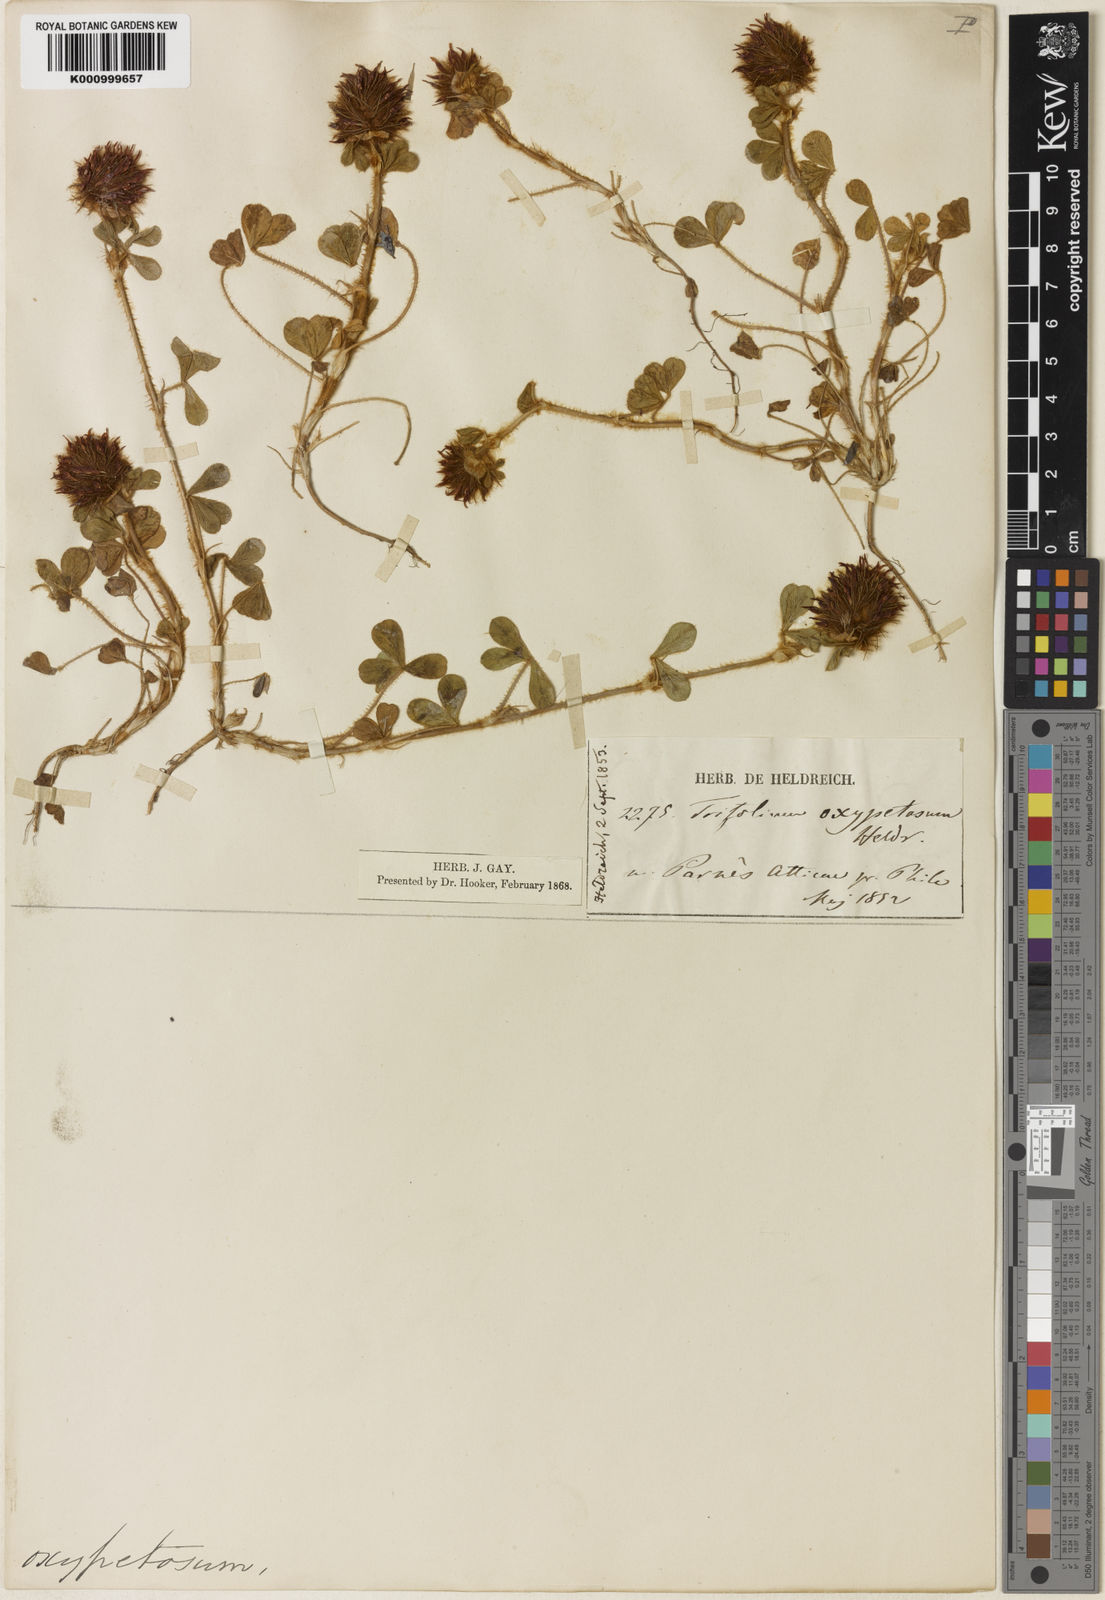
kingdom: Plantae
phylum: Tracheophyta
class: Magnoliopsida
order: Fabales
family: Fabaceae
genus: Trifolium
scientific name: Trifolium hirtum
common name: Rose clover
